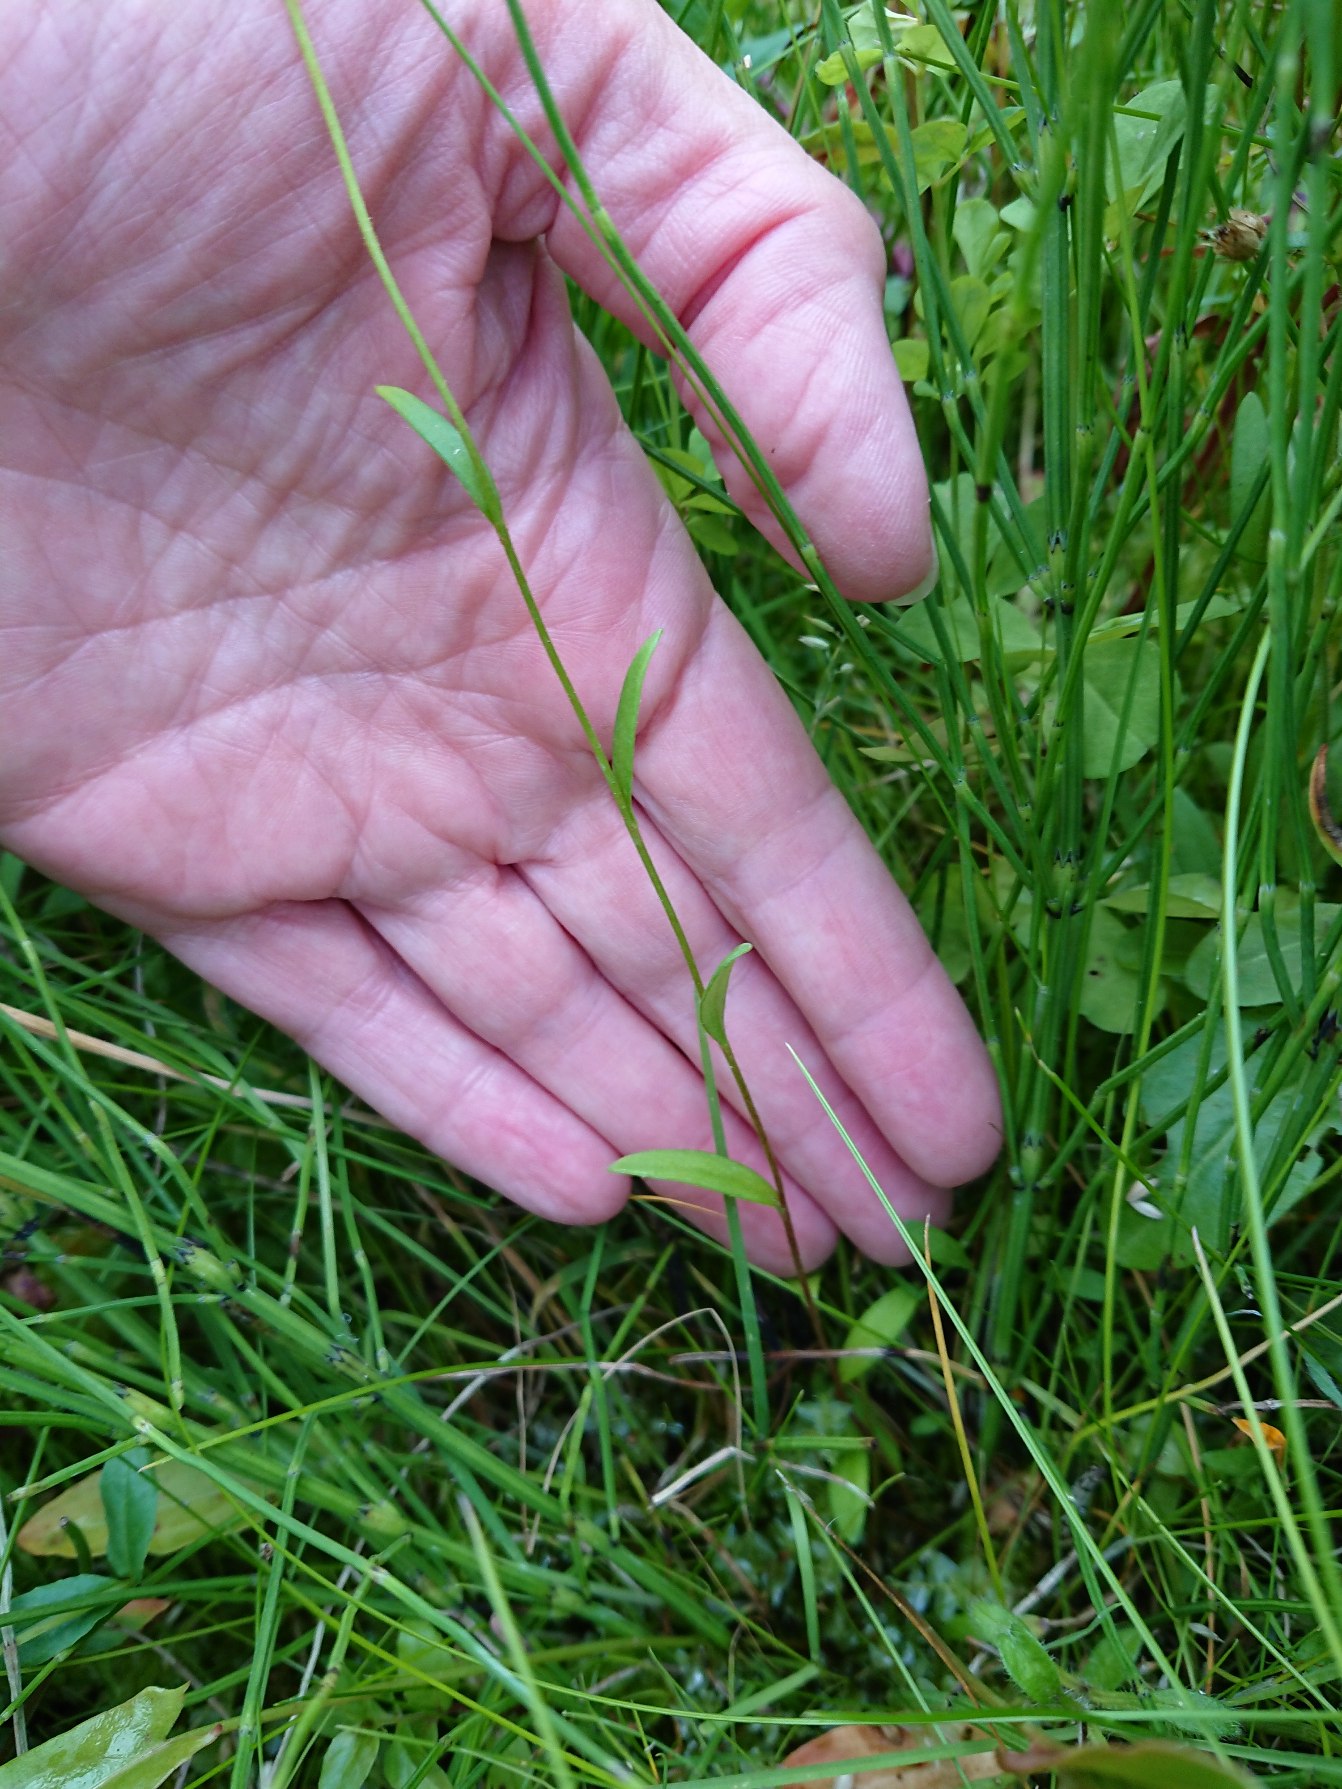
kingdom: Plantae
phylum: Tracheophyta
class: Magnoliopsida
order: Saxifragales
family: Saxifragaceae
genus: Saxifraga
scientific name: Saxifraga hirculus
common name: Gul stenbræk
